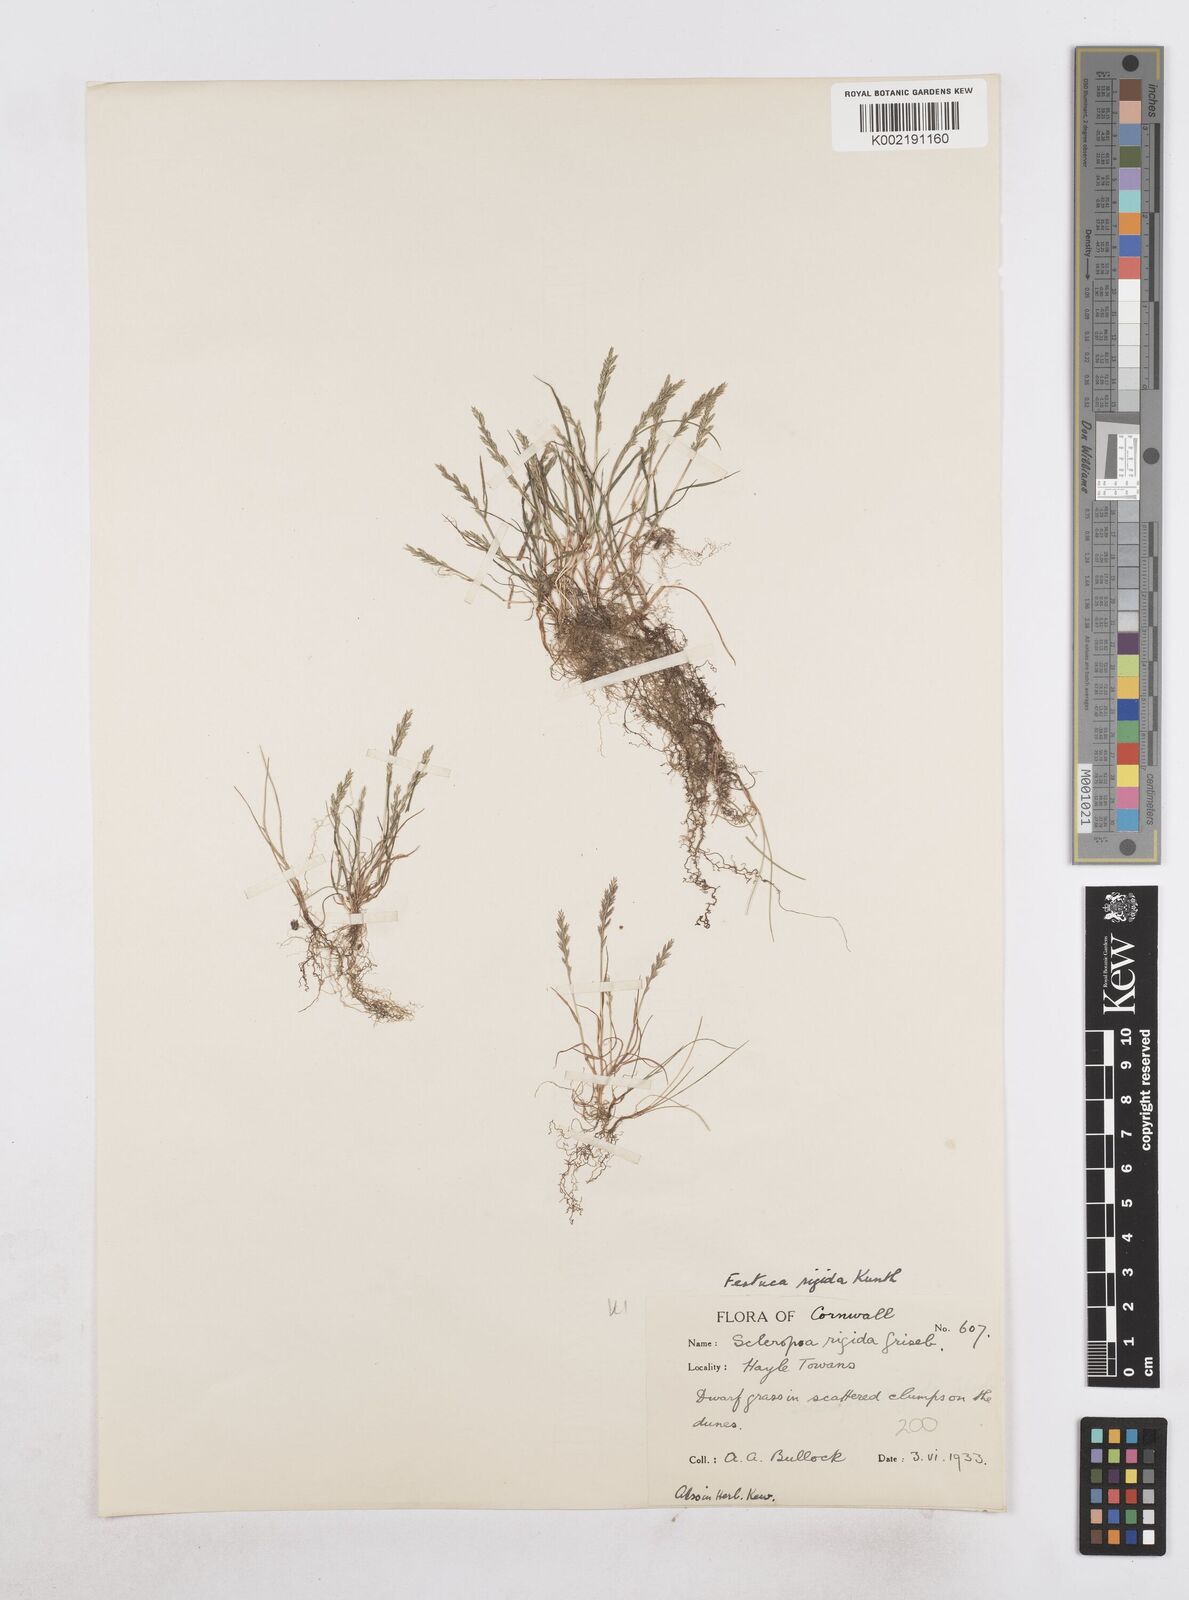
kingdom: Plantae
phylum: Tracheophyta
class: Liliopsida
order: Poales
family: Poaceae
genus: Catapodium
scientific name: Catapodium rigidum
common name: Fern-grass
